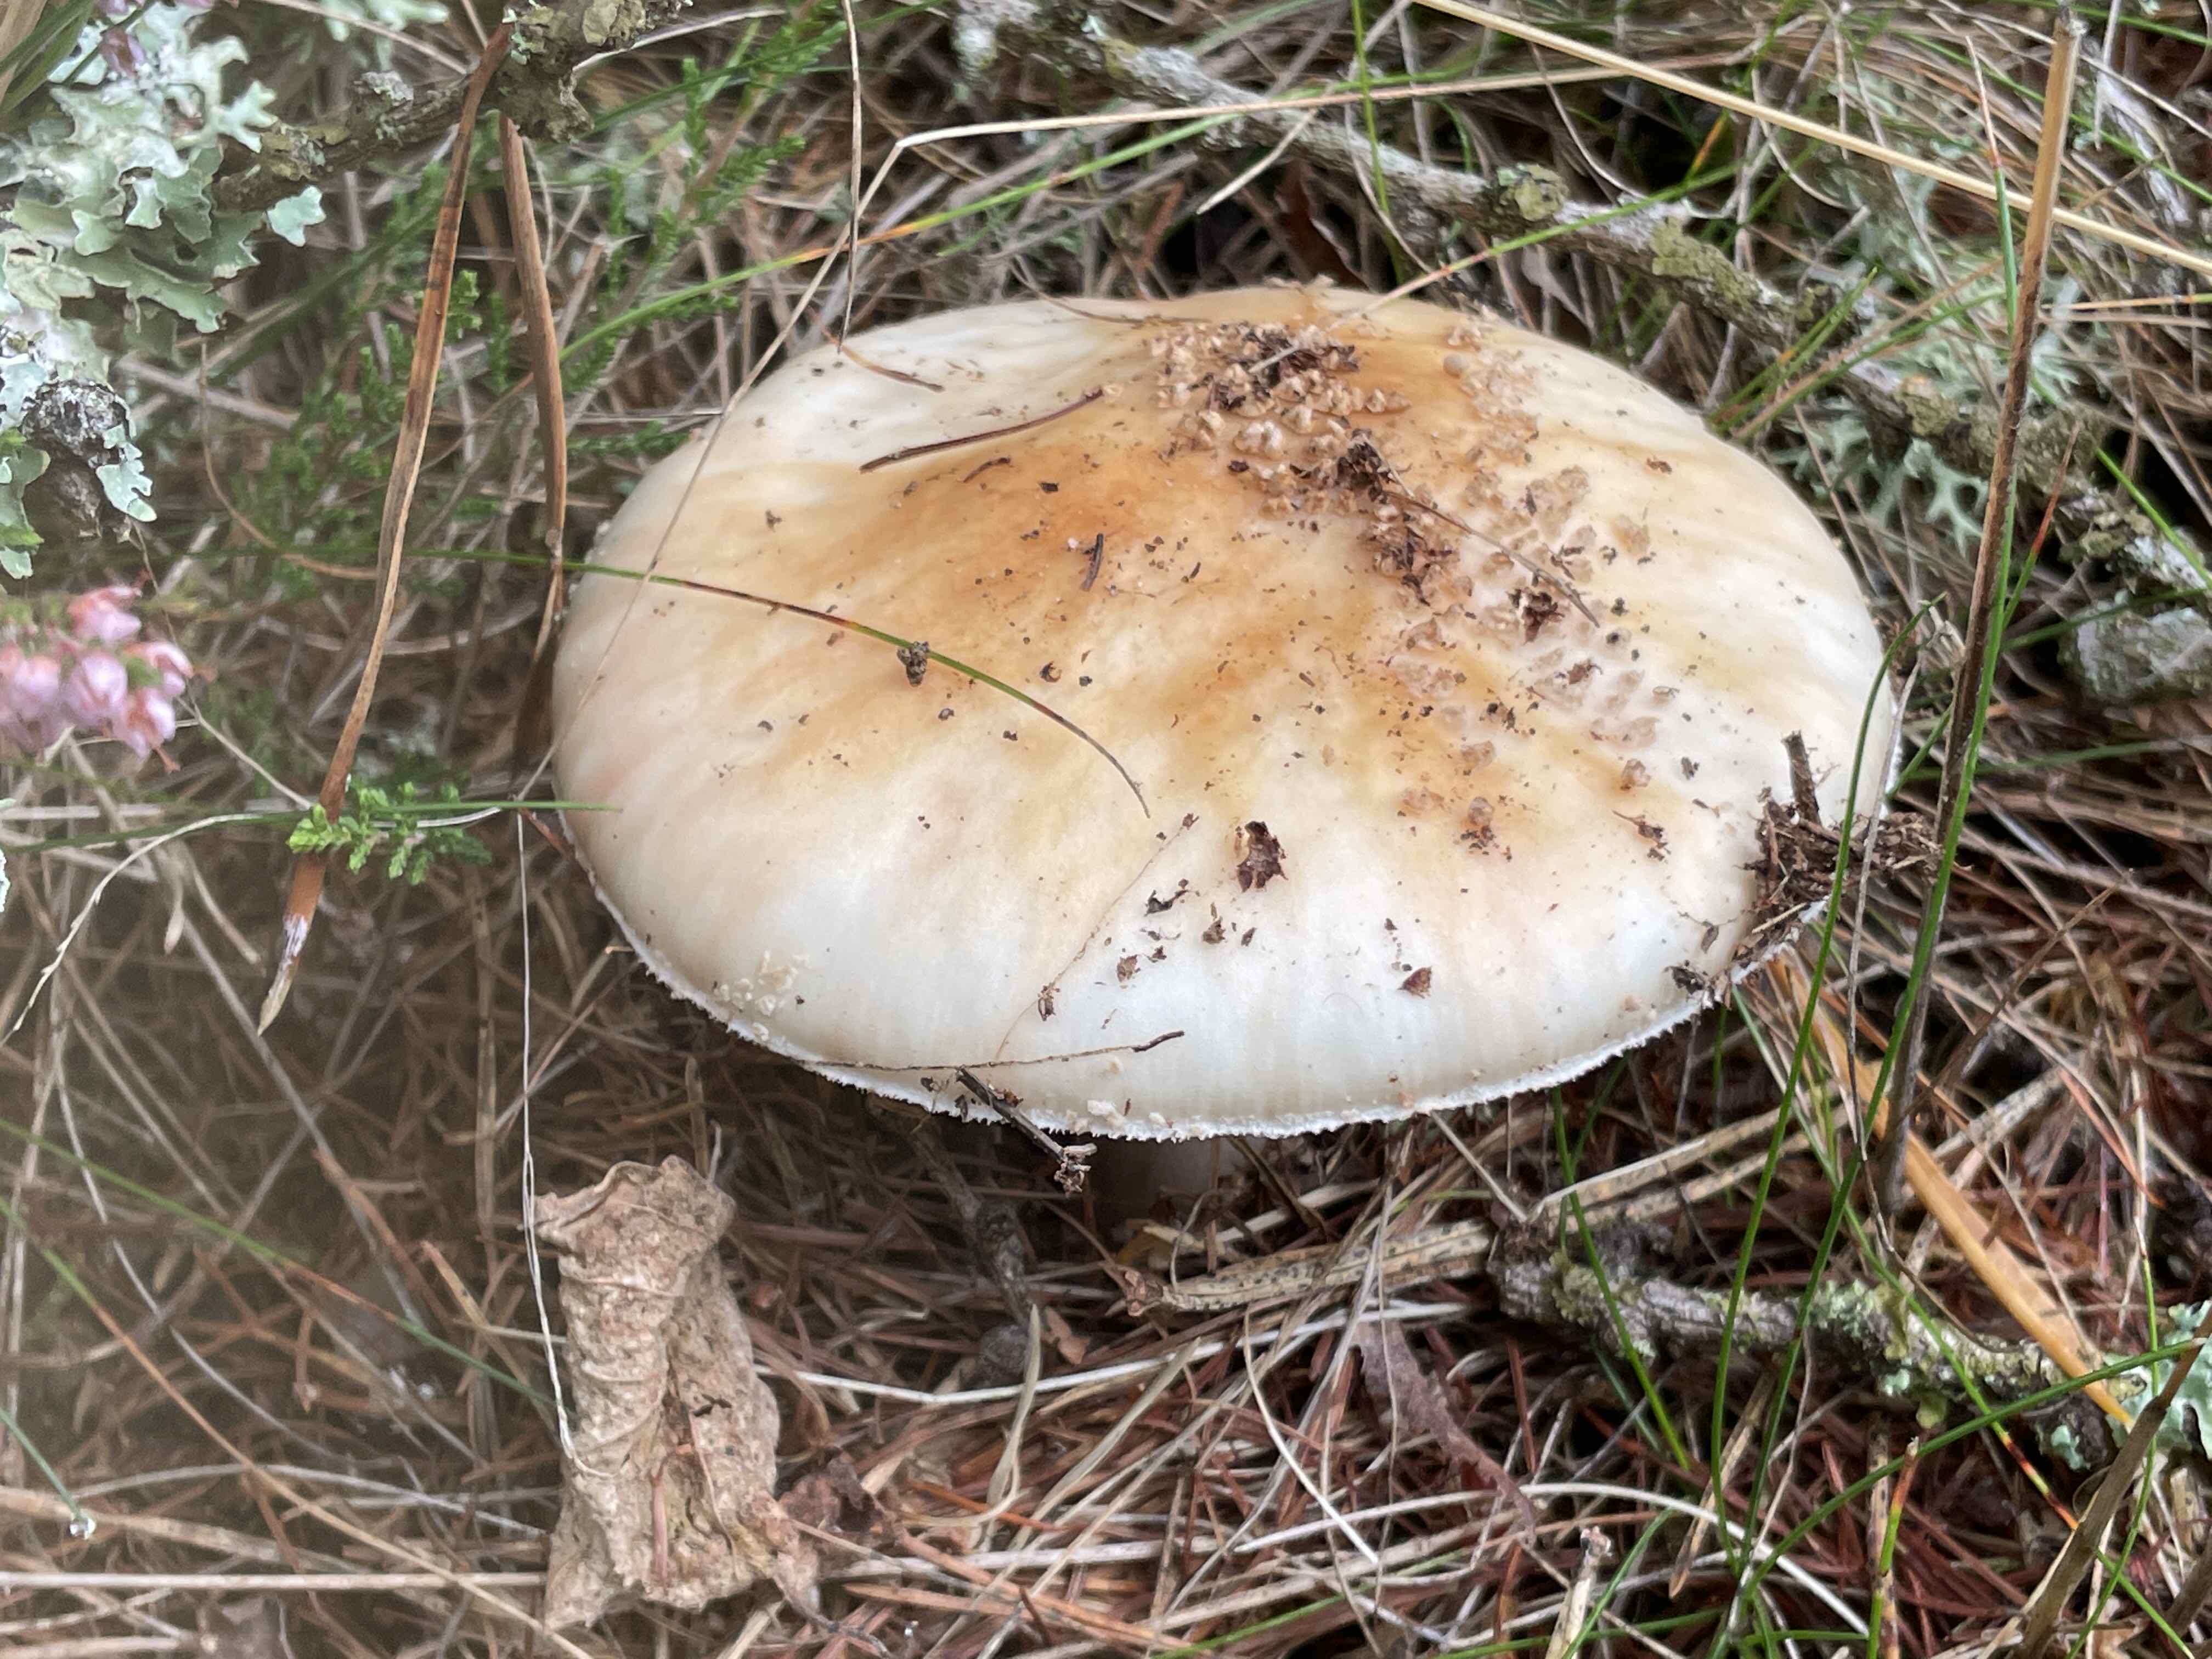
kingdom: Fungi
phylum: Basidiomycota
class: Agaricomycetes
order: Agaricales
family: Amanitaceae
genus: Amanita
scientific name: Amanita rubescens
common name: rødmende fluesvamp
